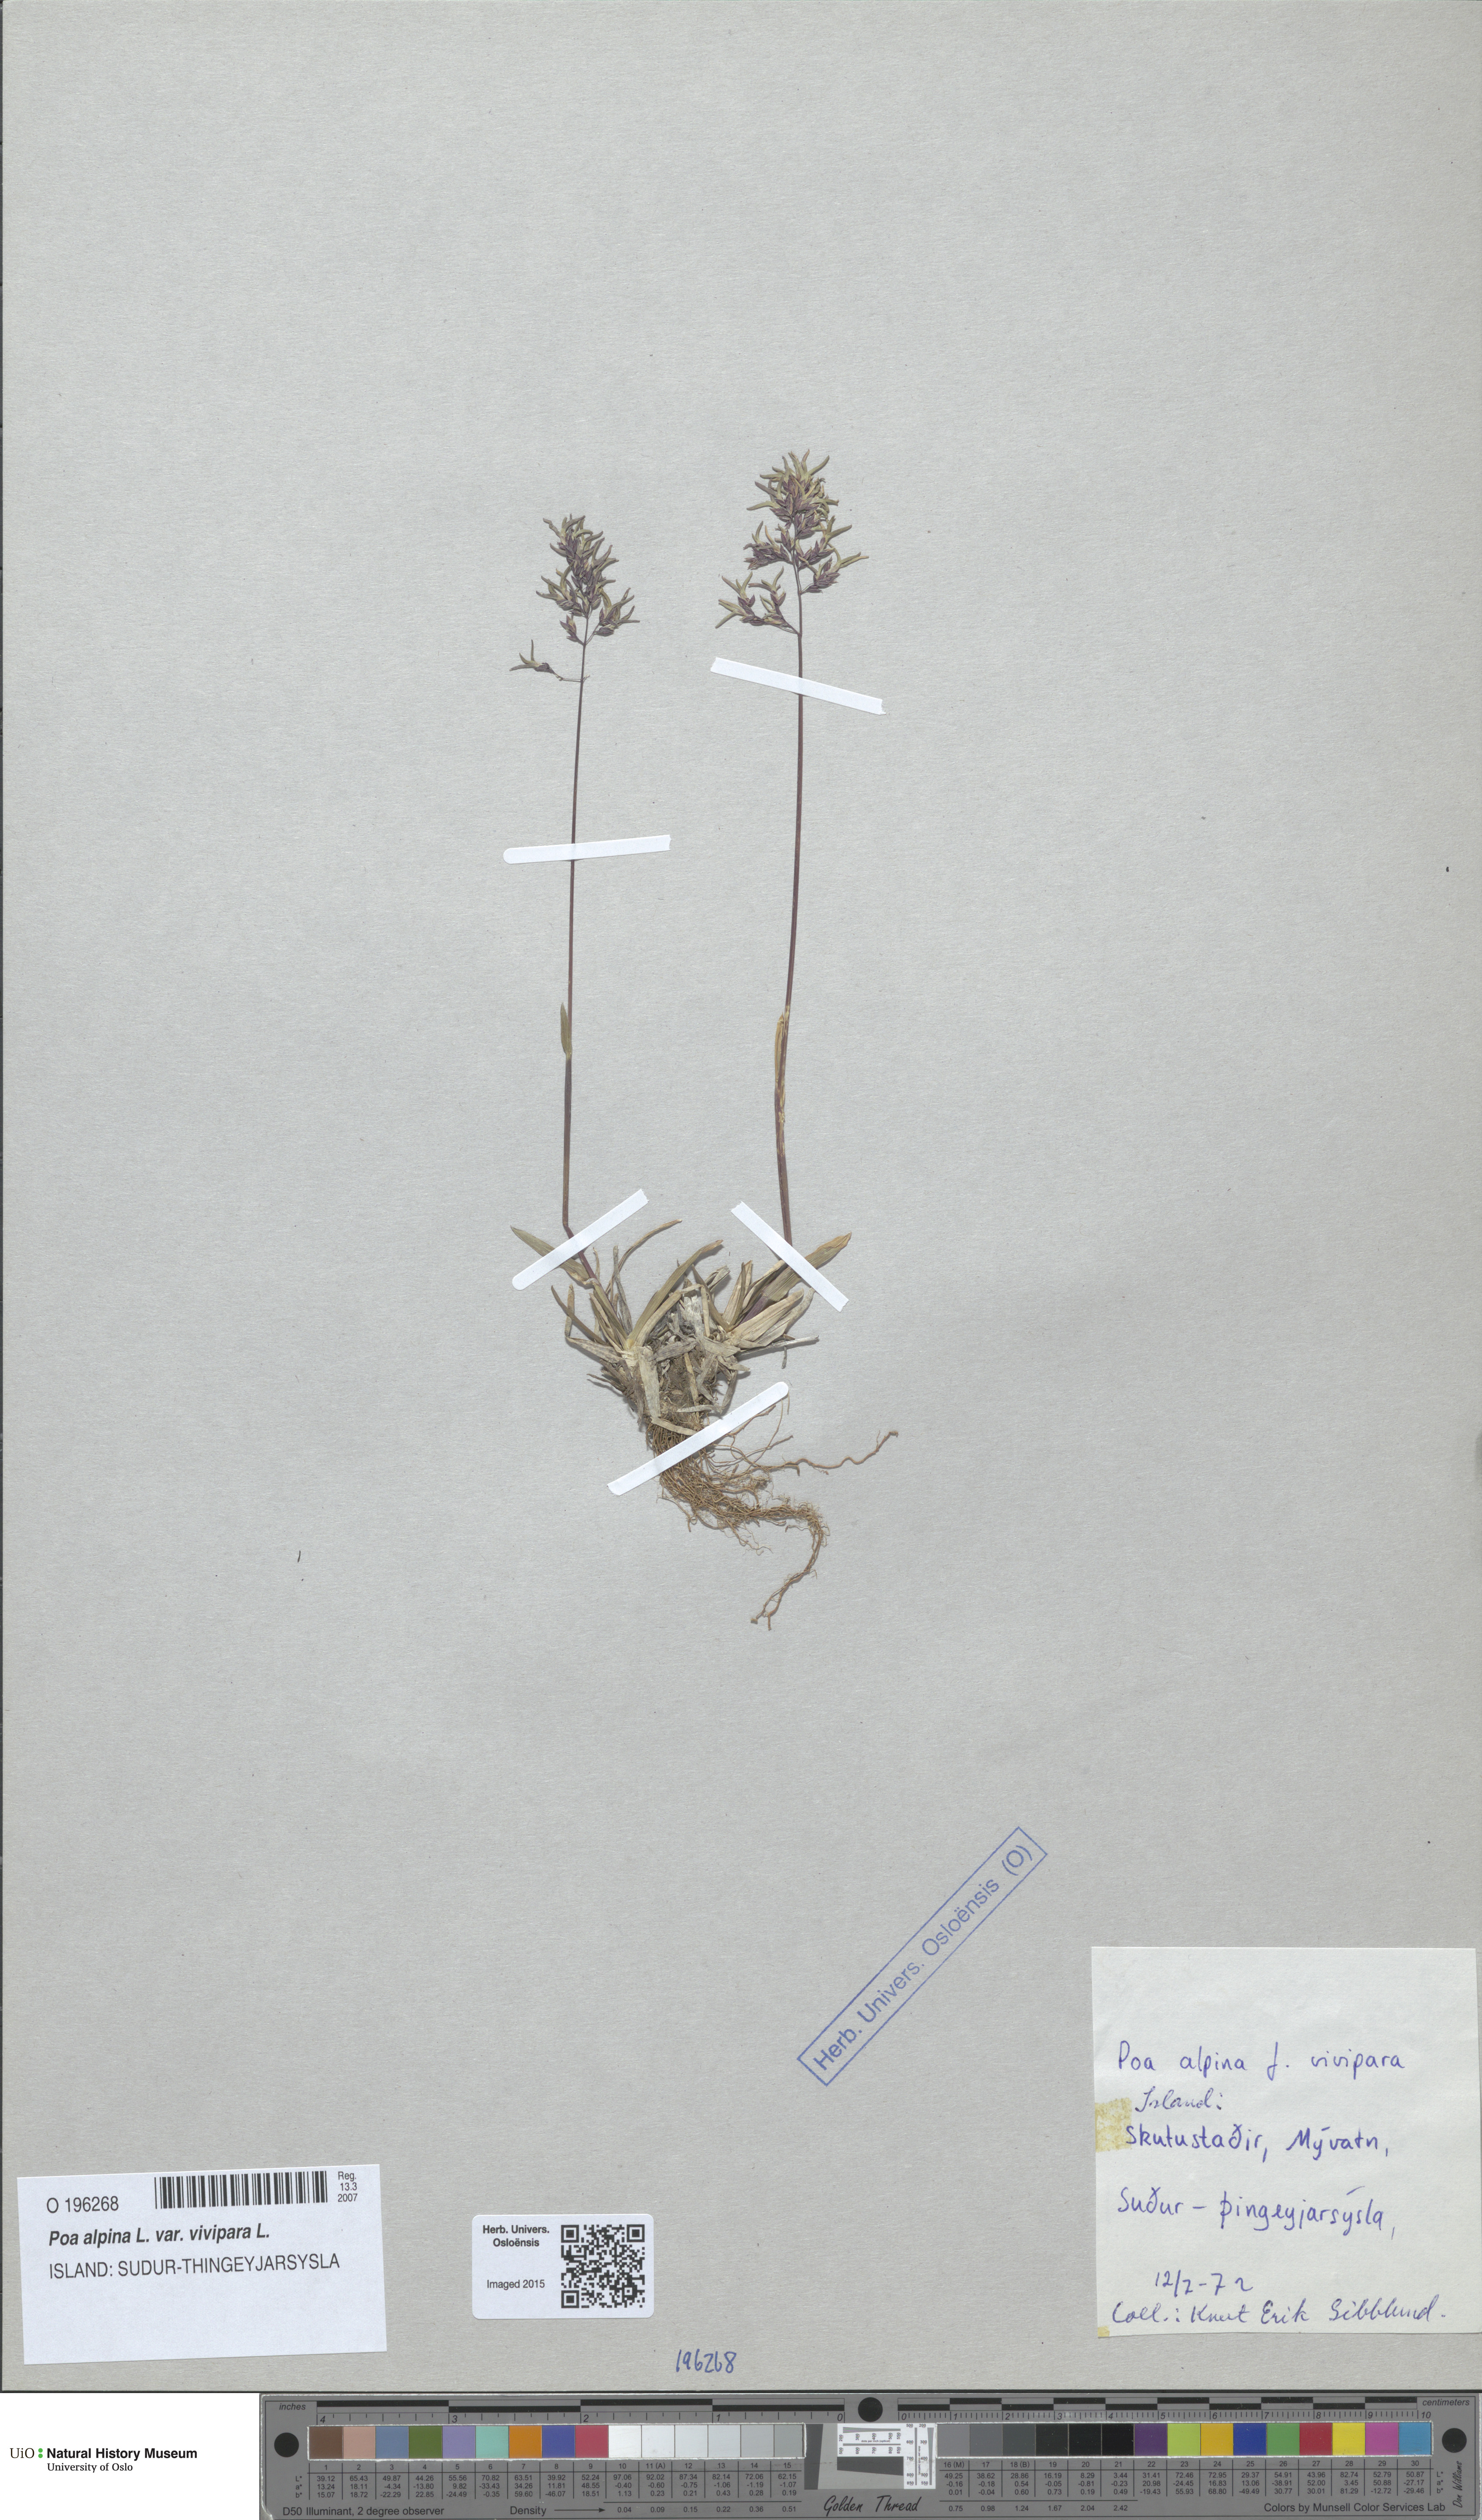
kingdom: Plantae
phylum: Tracheophyta
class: Liliopsida
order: Poales
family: Poaceae
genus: Poa
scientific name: Poa alpina
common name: Alpine bluegrass
